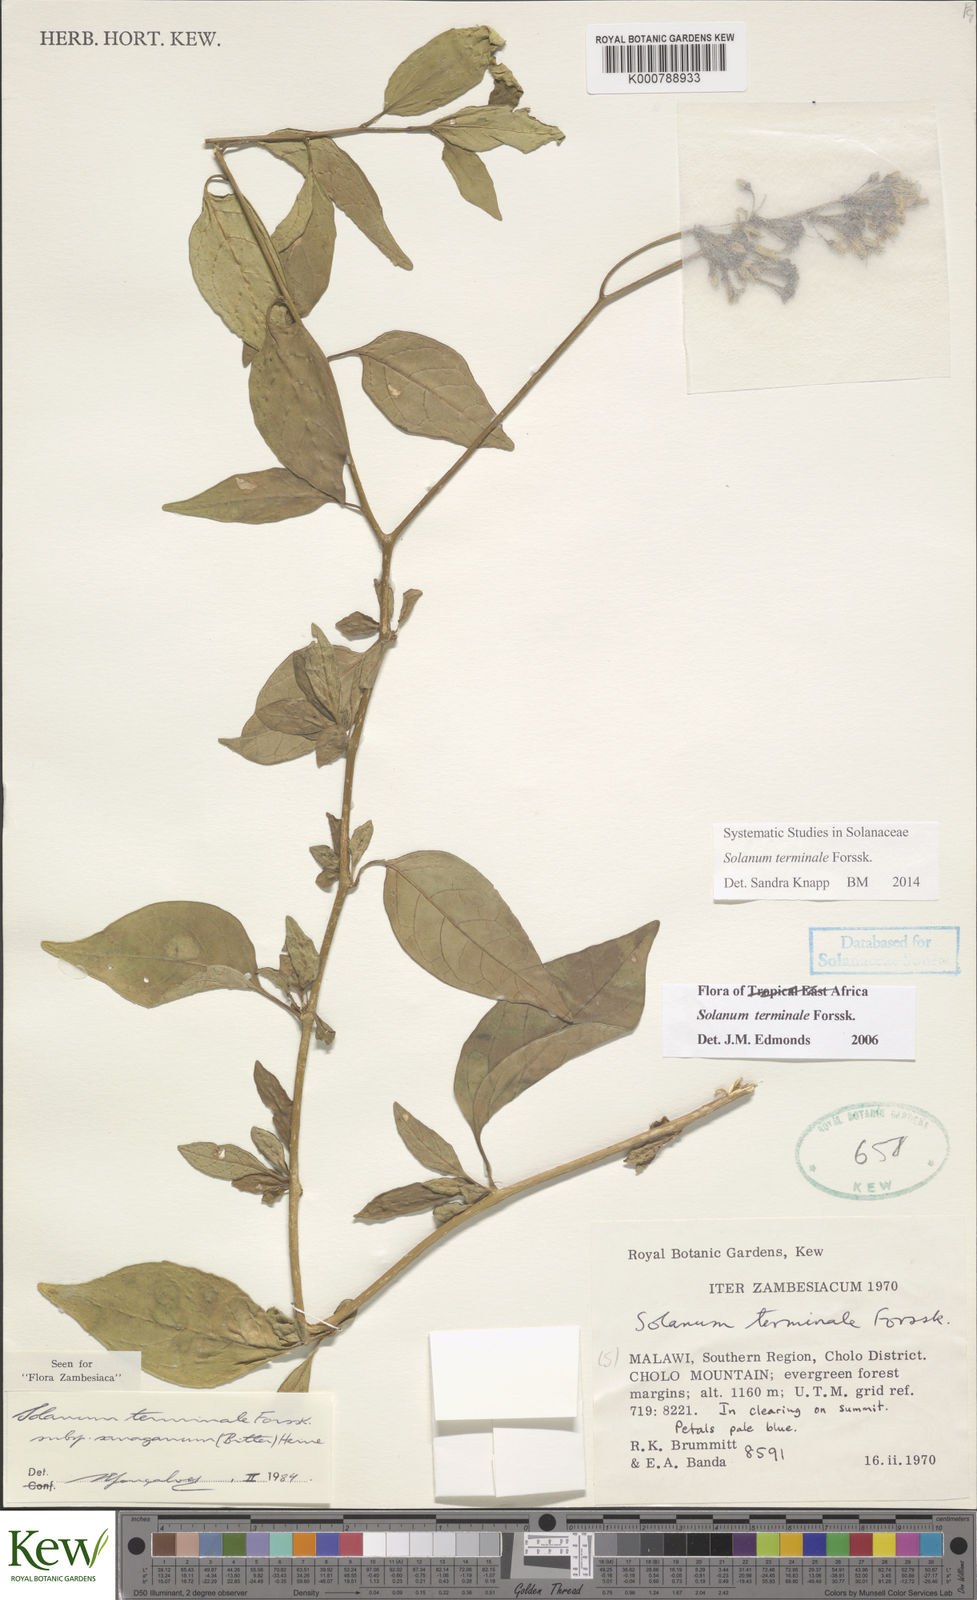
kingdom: Plantae
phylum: Tracheophyta
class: Magnoliopsida
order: Solanales
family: Solanaceae
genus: Solanum
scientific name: Solanum terminale
